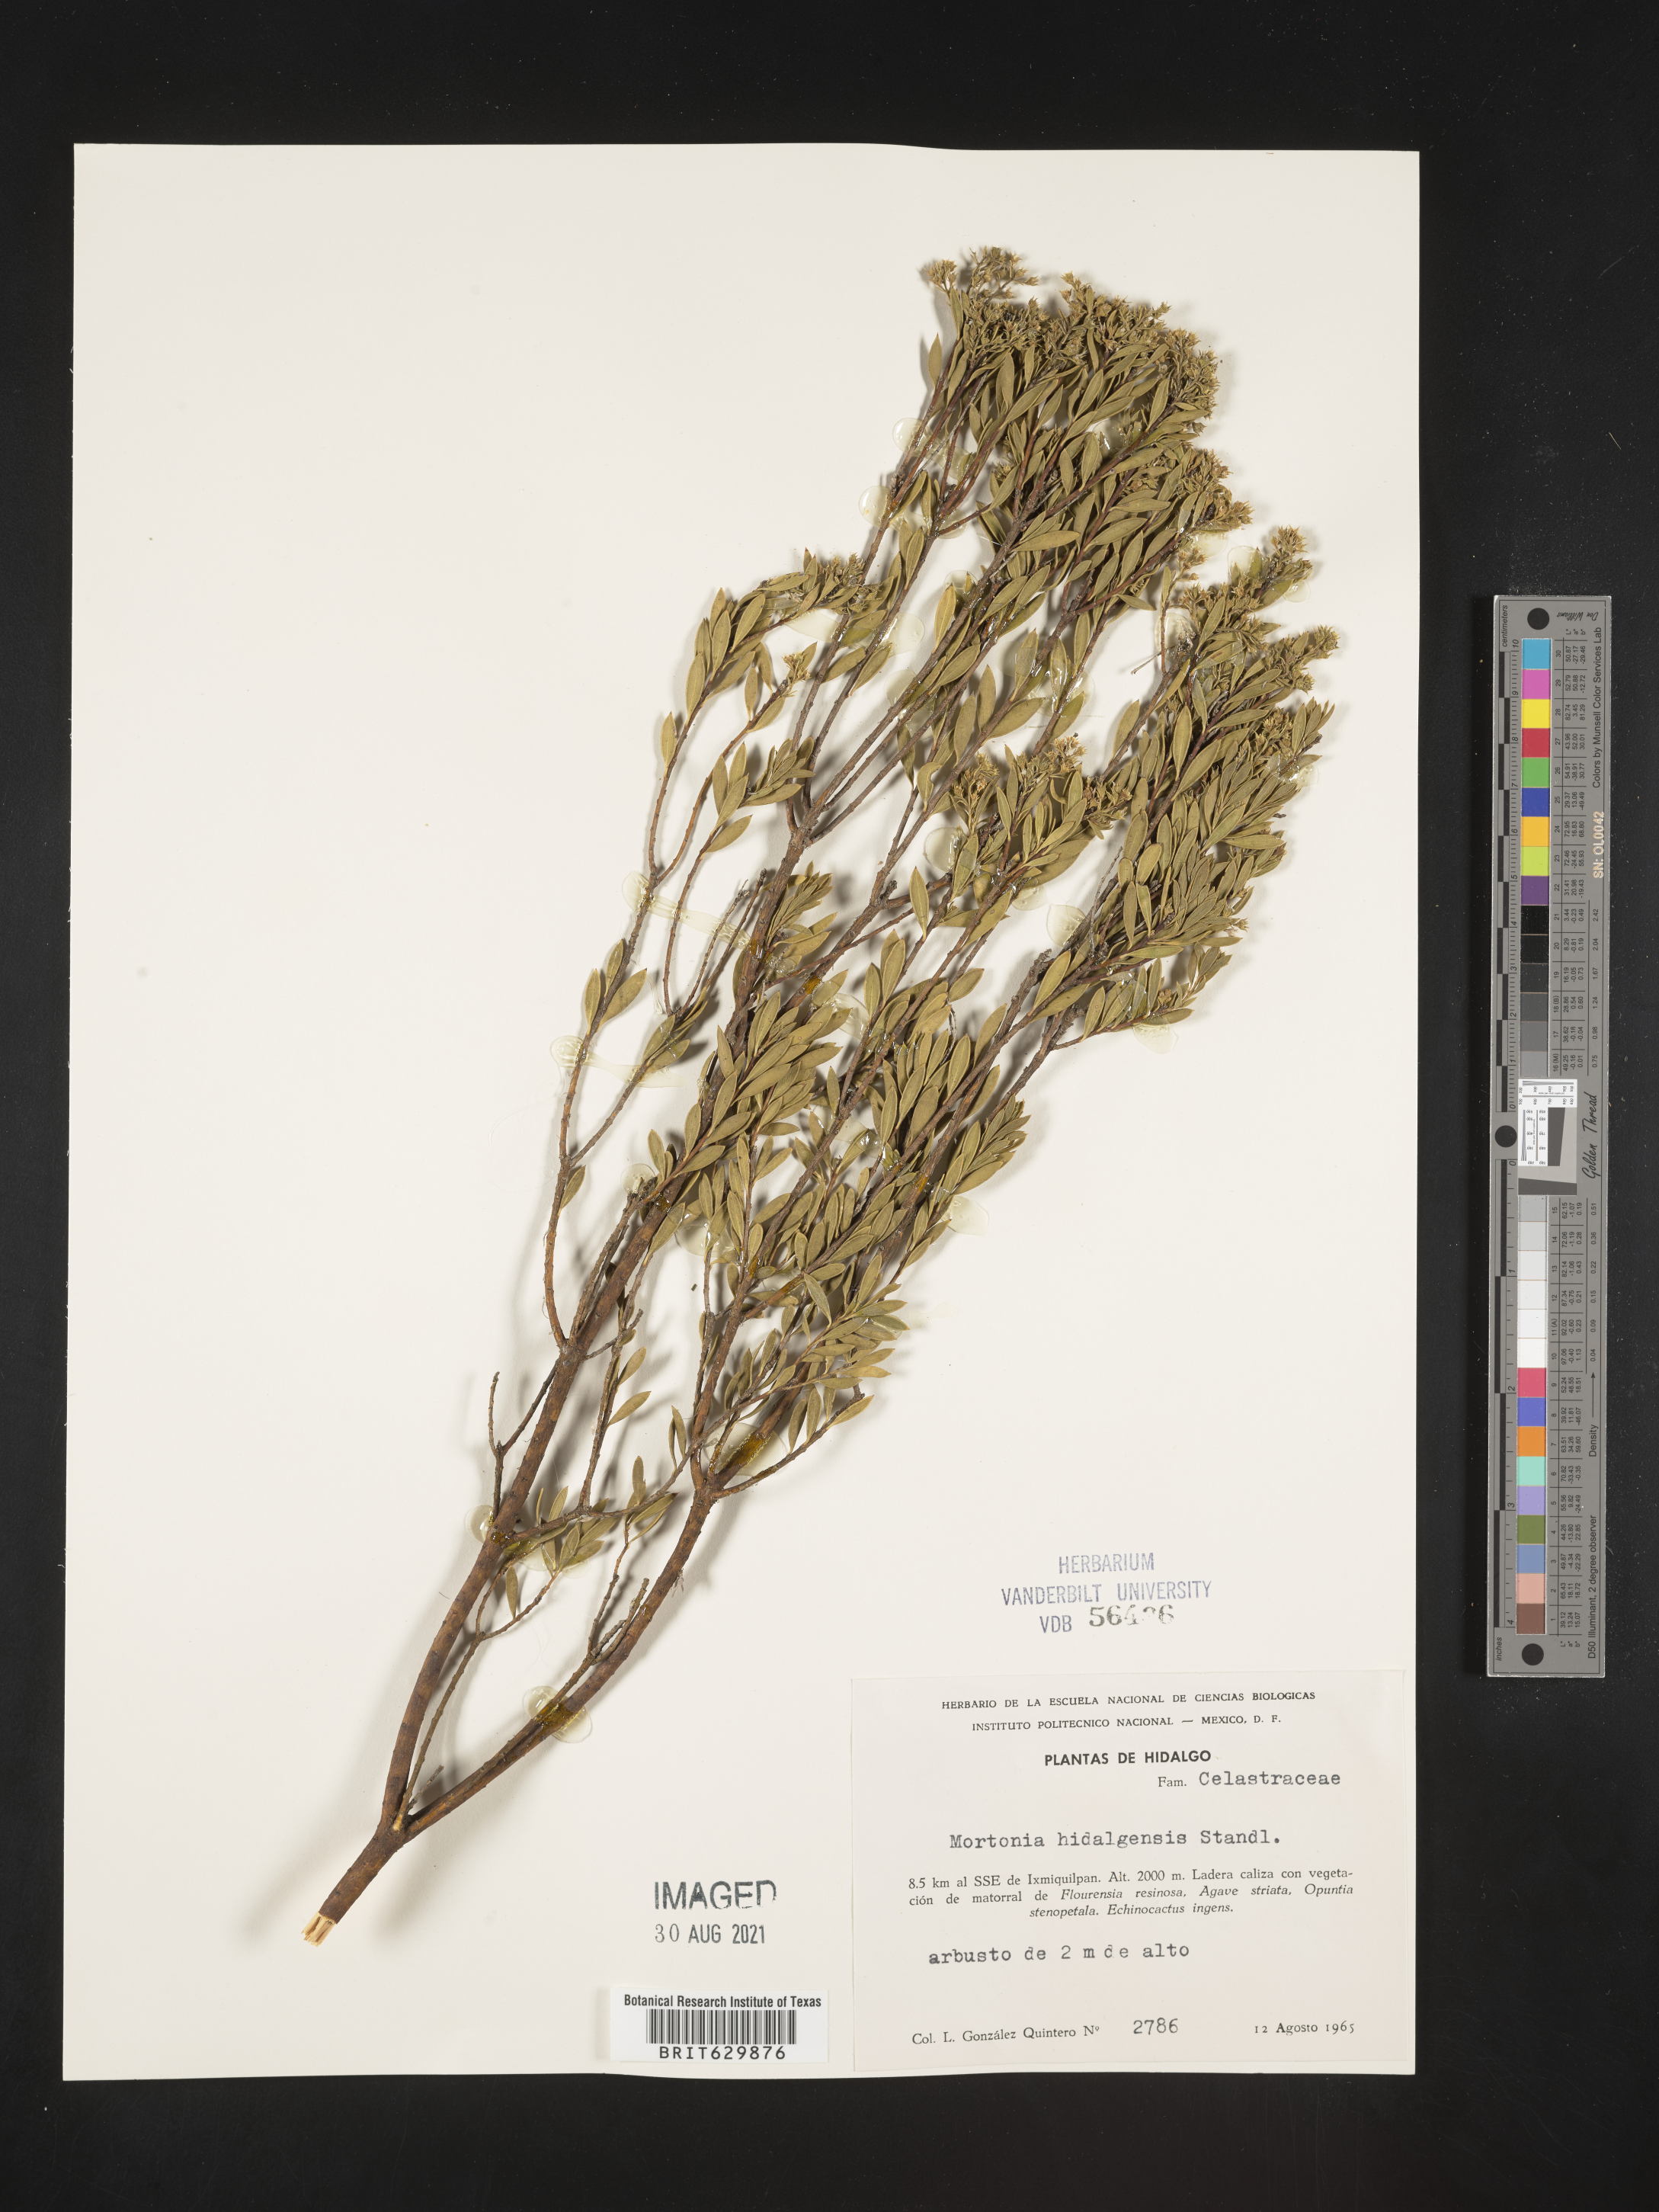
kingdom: Plantae
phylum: Tracheophyta
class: Magnoliopsida
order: Celastrales
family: Celastraceae
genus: Mortonia
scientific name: Mortonia
